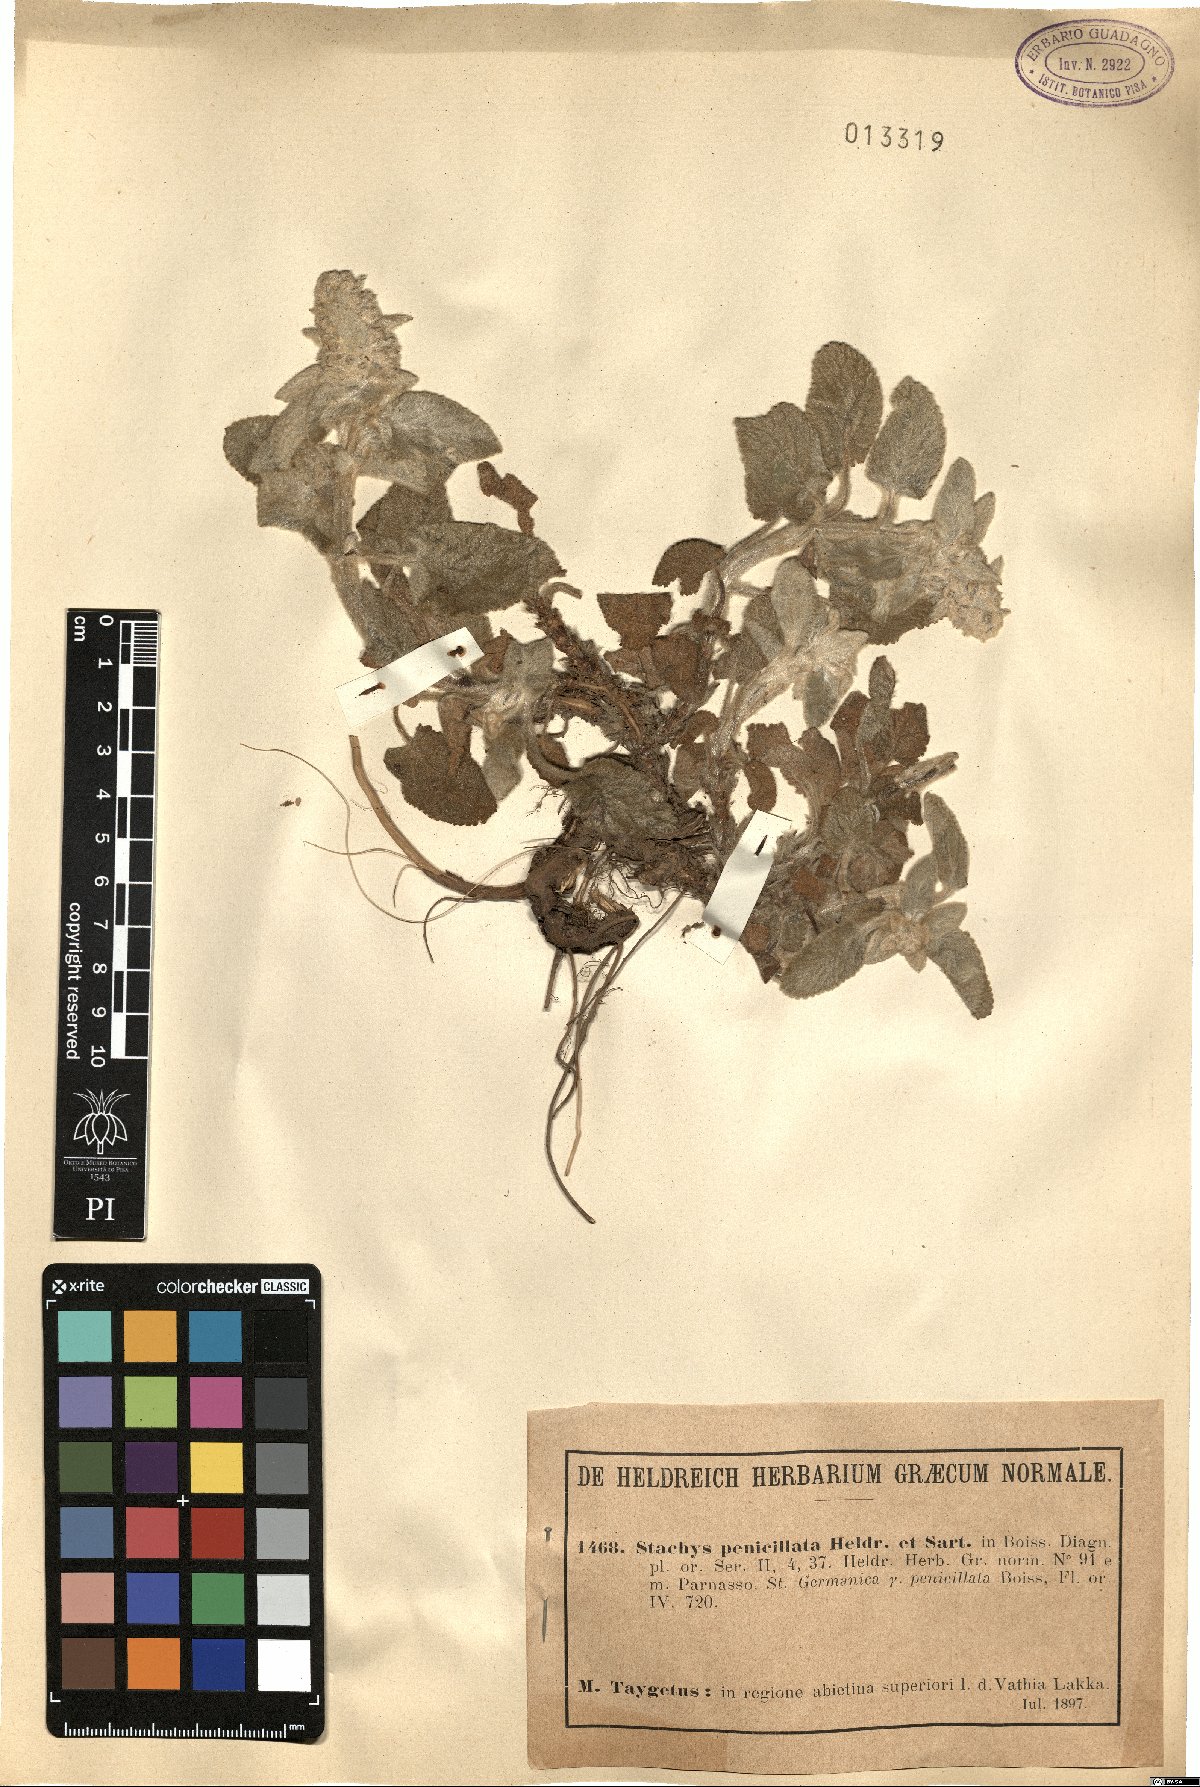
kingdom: Plantae
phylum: Tracheophyta
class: Magnoliopsida
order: Lamiales
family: Lamiaceae
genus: Stachys
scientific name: Stachys germanica
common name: Downy woundwort
